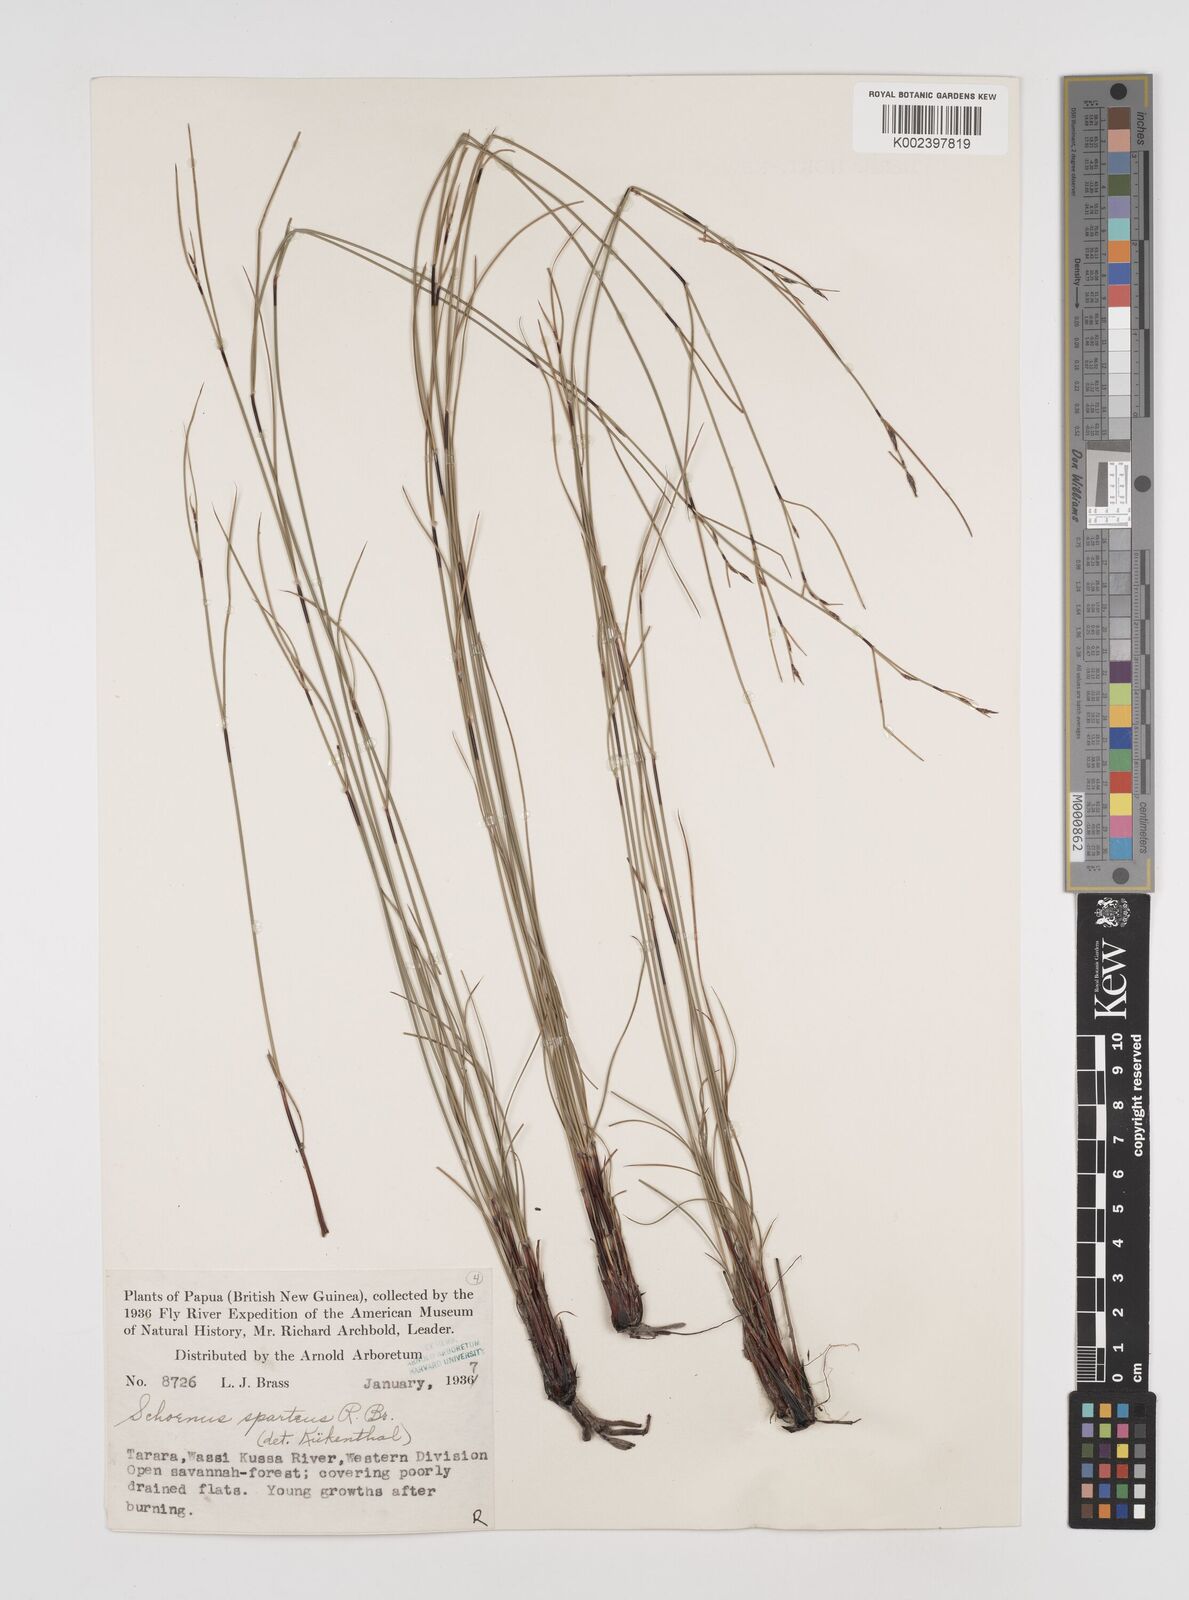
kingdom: Plantae
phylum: Tracheophyta
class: Liliopsida
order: Poales
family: Cyperaceae
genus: Schoenus
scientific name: Schoenus sparteus
